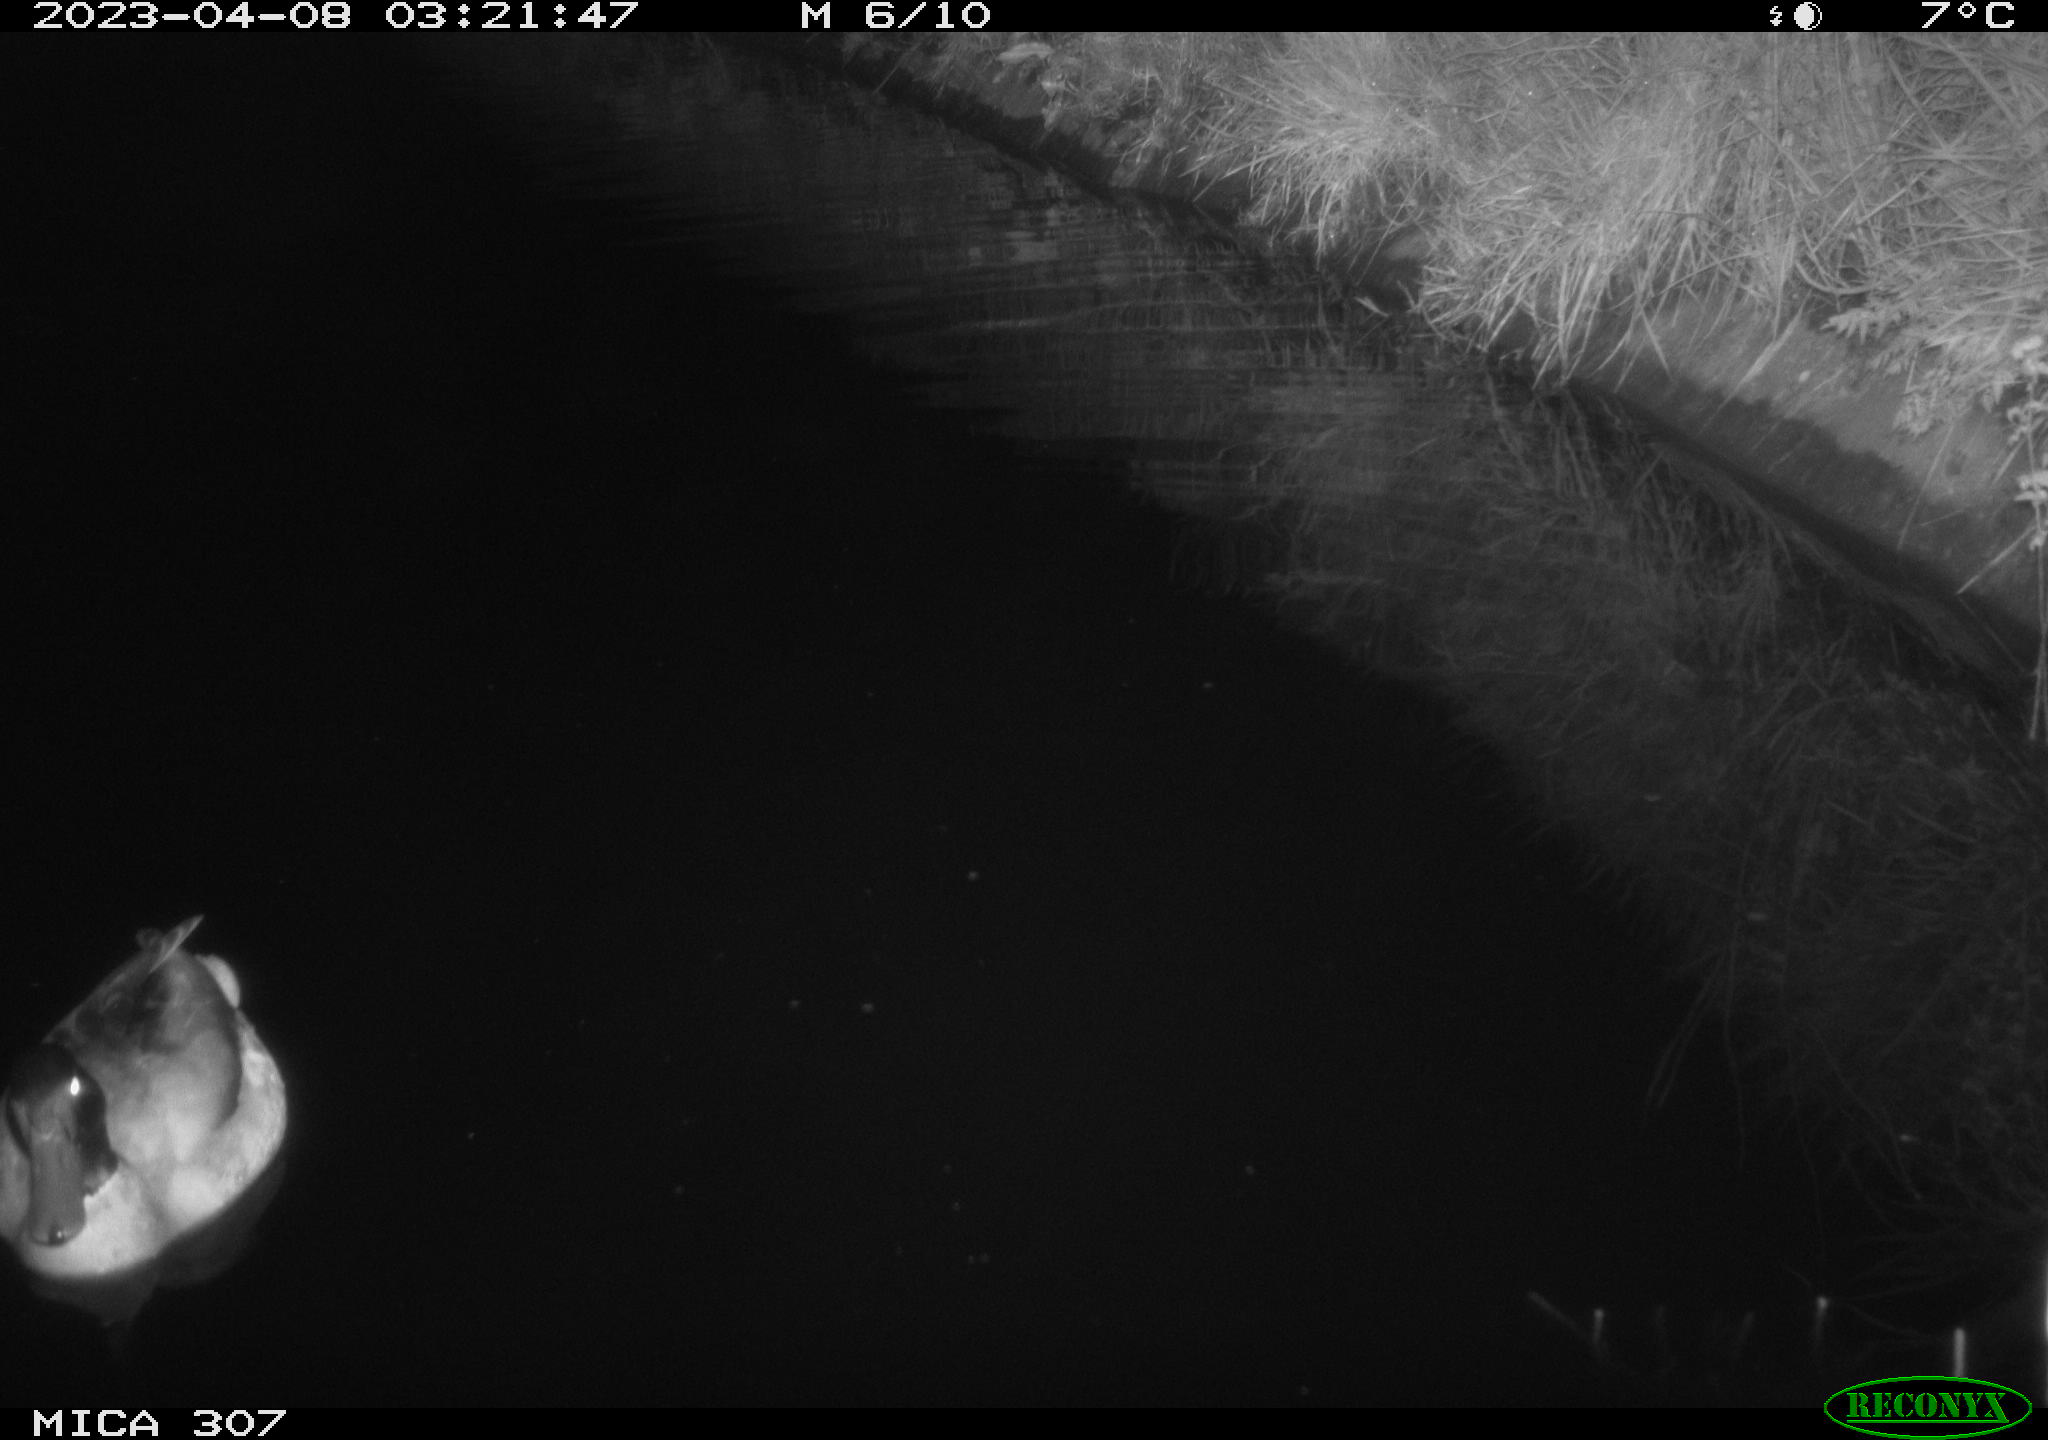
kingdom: Animalia
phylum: Chordata
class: Aves
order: Anseriformes
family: Anatidae
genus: Anas
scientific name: Anas
